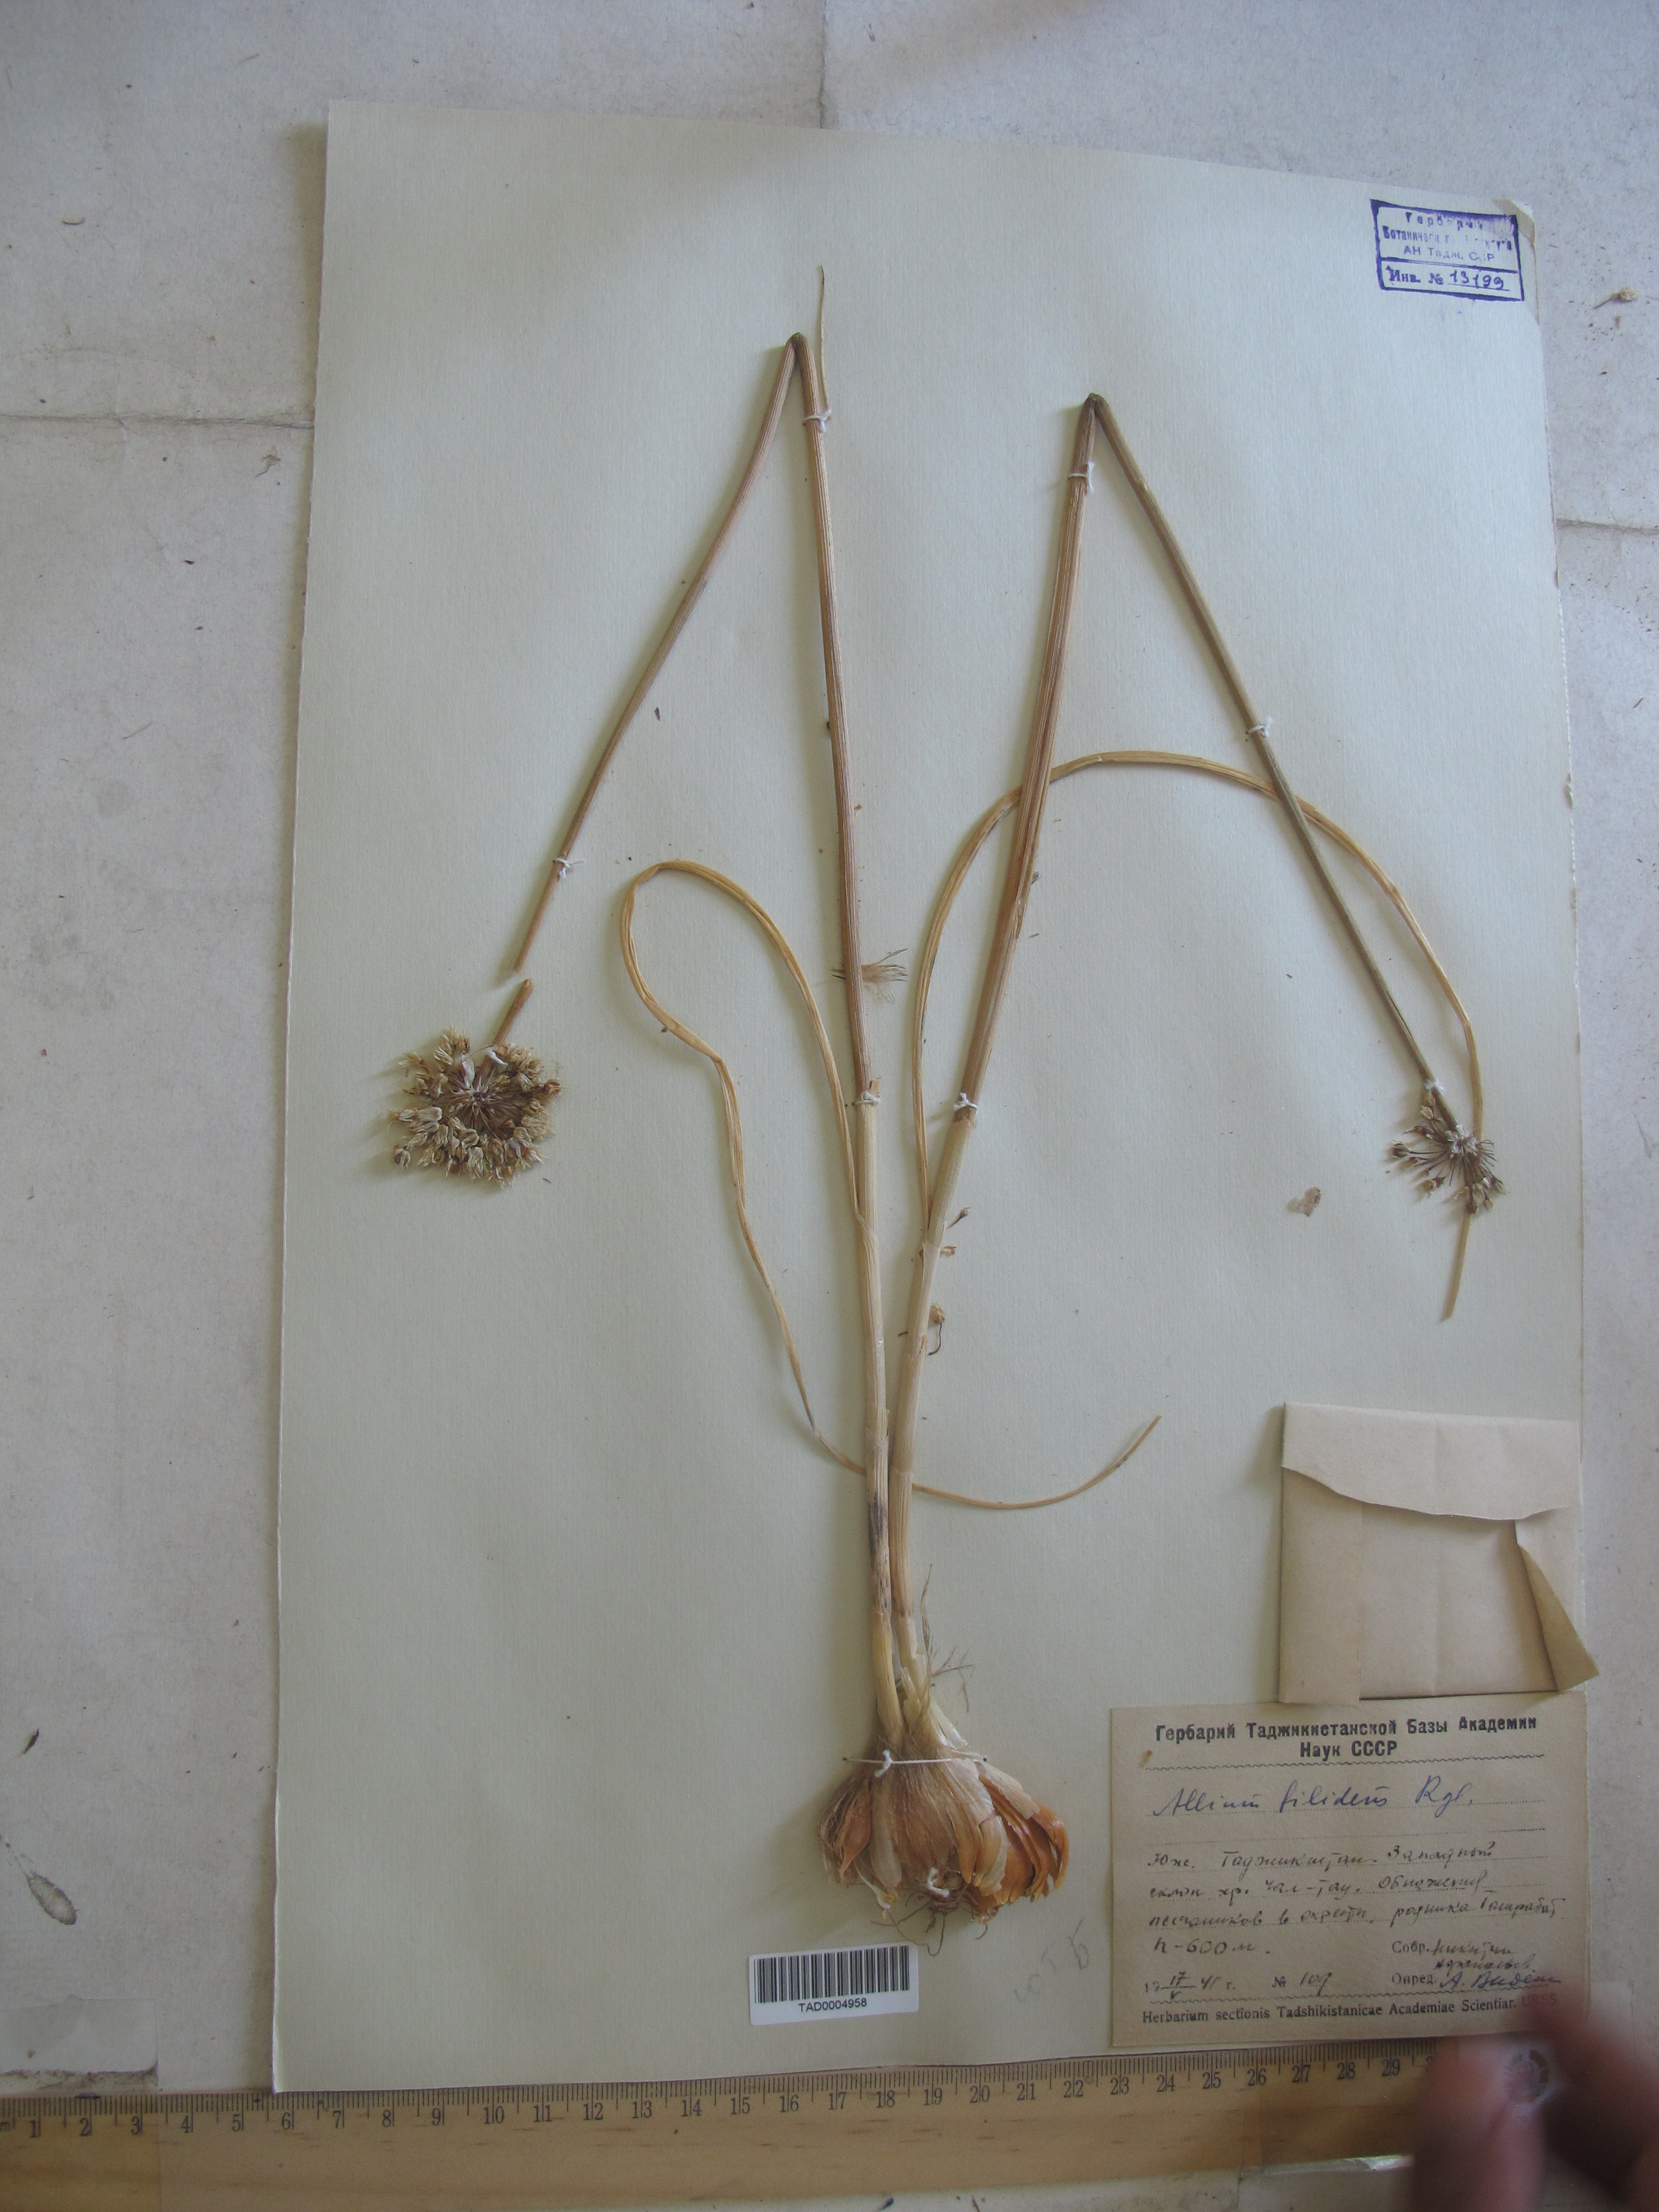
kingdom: Plantae
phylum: Tracheophyta
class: Liliopsida
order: Asparagales
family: Amaryllidaceae
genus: Allium
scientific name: Allium filidens
